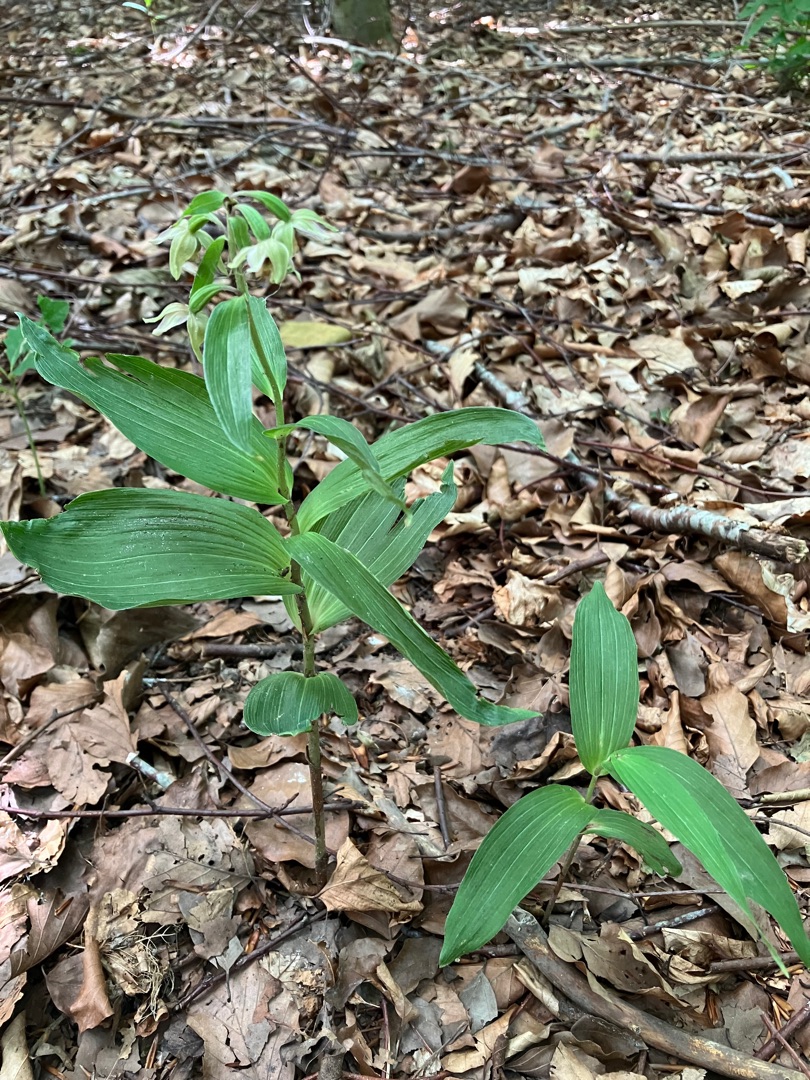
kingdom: Plantae
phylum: Tracheophyta
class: Liliopsida
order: Asparagales
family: Orchidaceae
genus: Epipactis
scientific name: Epipactis helleborine
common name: Skov-hullæbe
